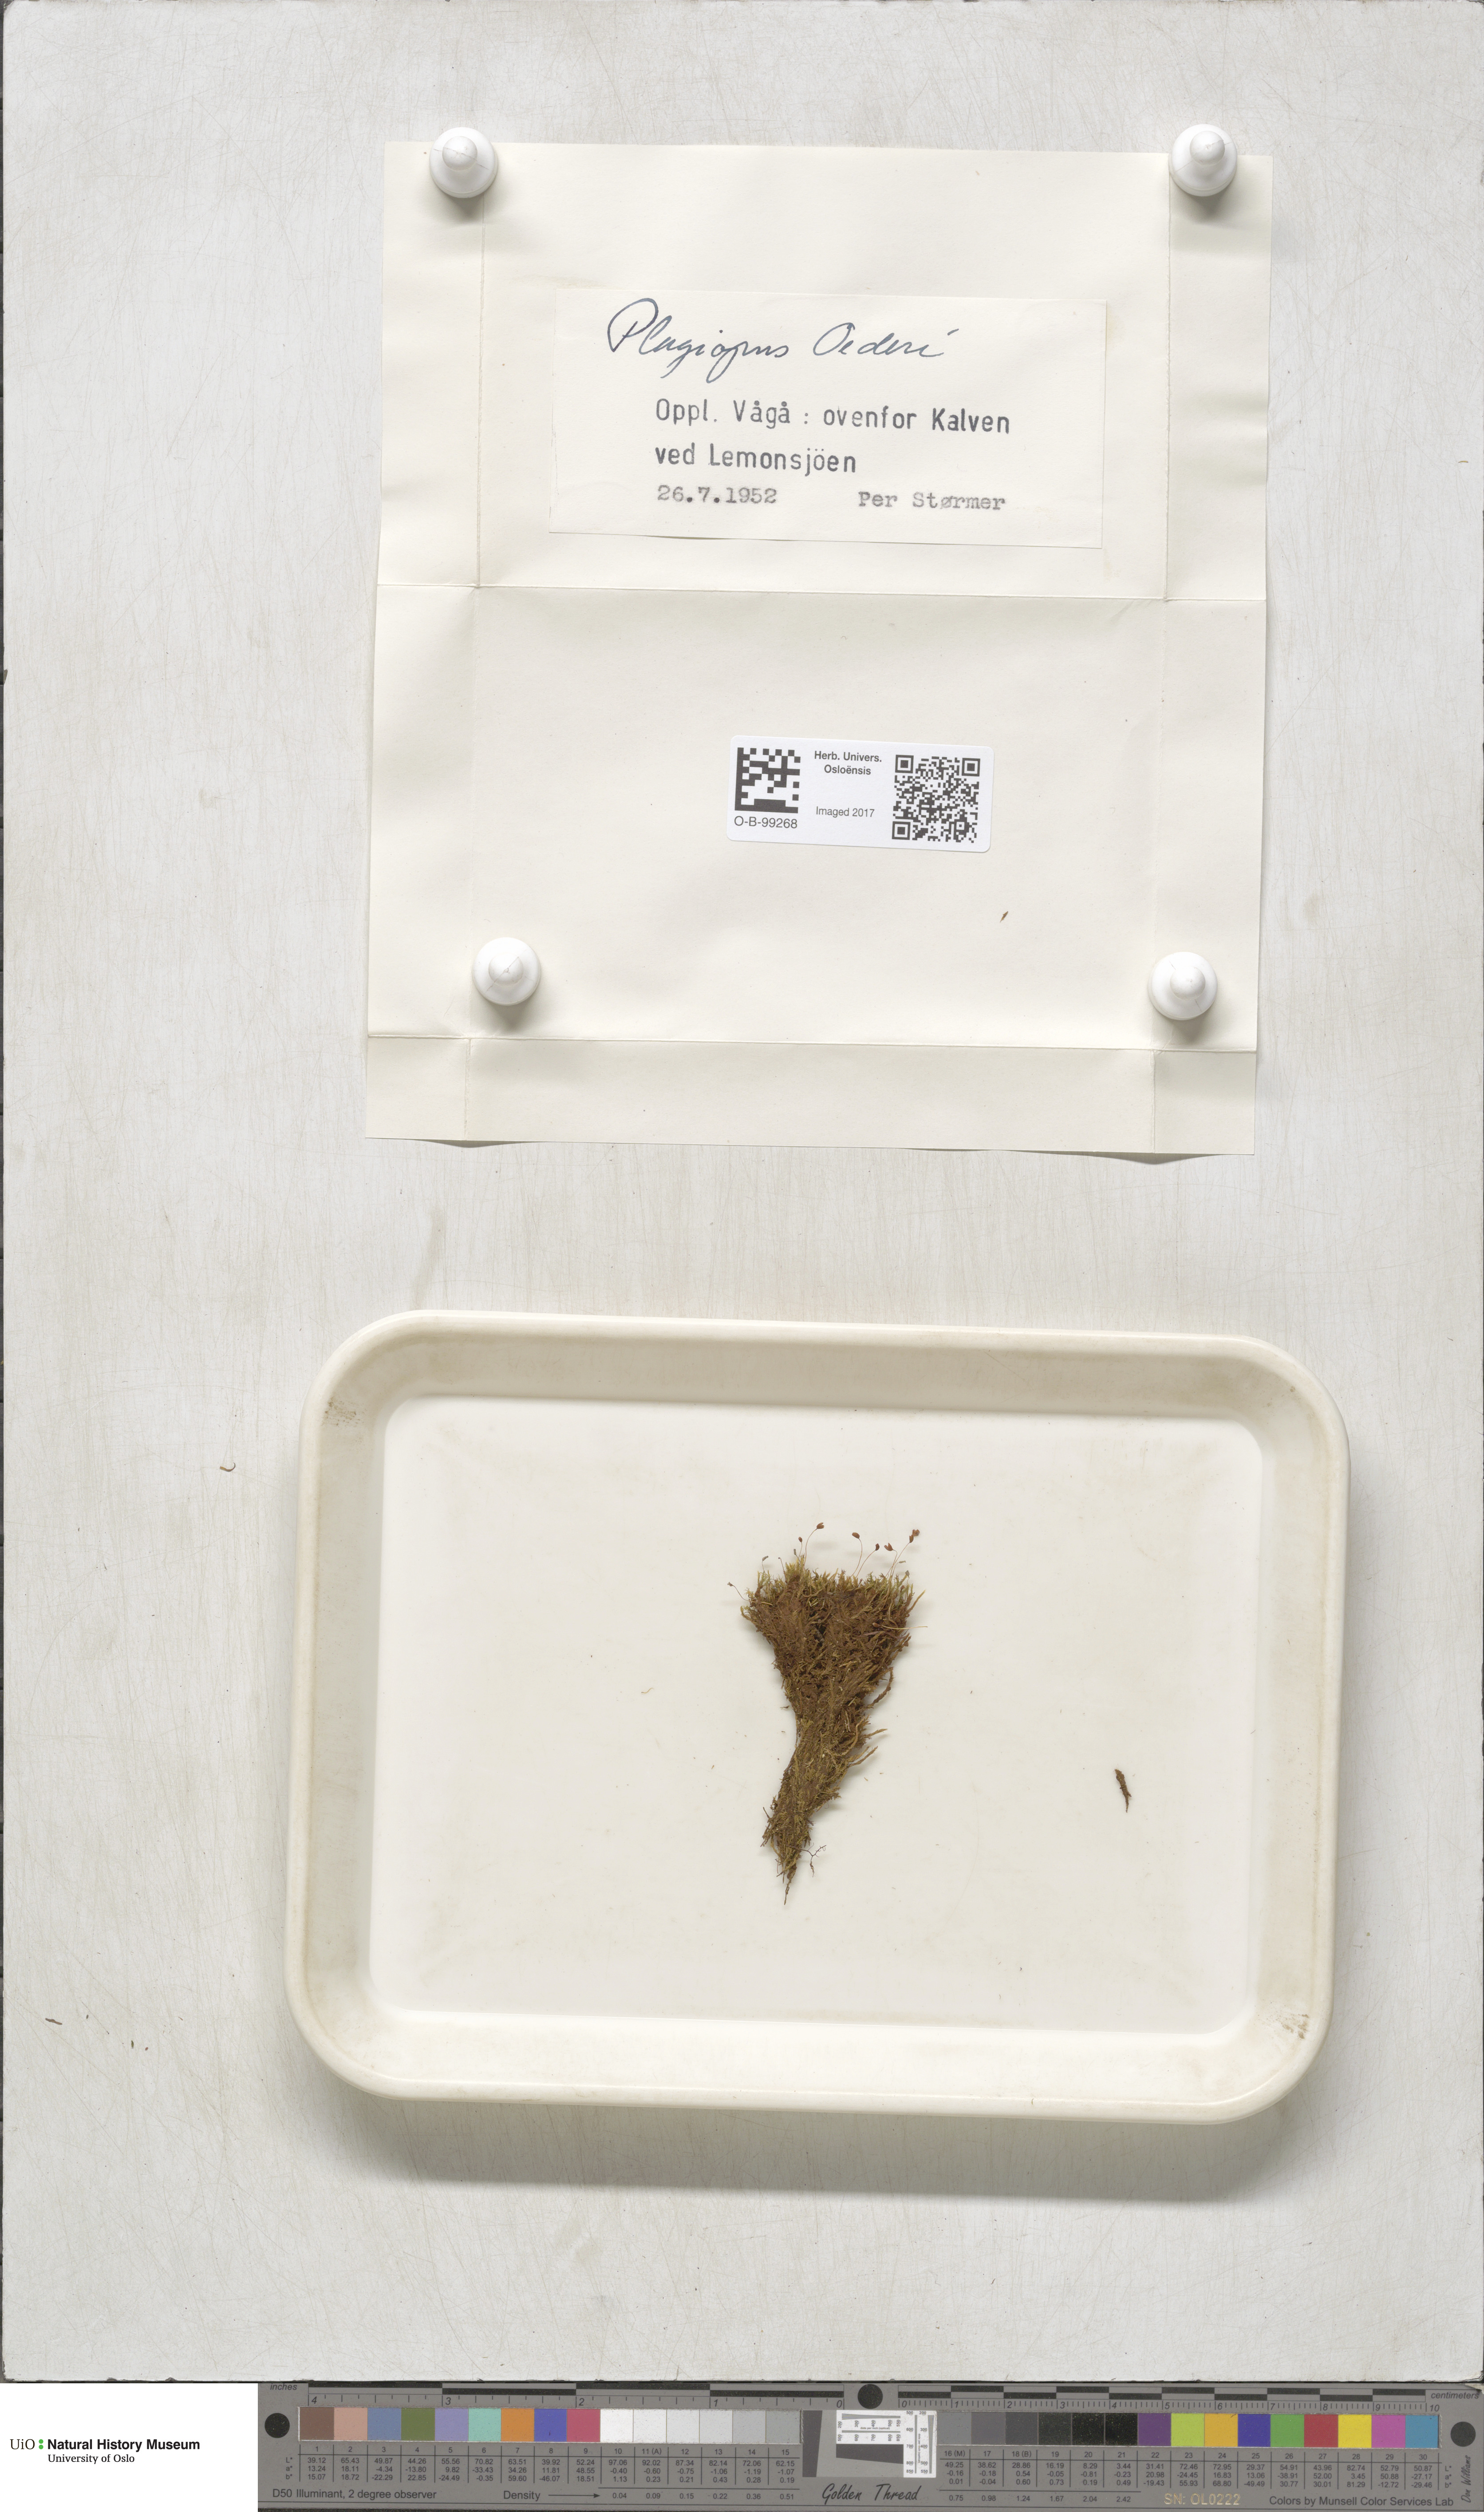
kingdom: Plantae
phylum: Bryophyta
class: Bryopsida
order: Bartramiales
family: Bartramiaceae
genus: Plagiopus
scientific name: Plagiopus oederianus
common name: Oeder's apple moss
